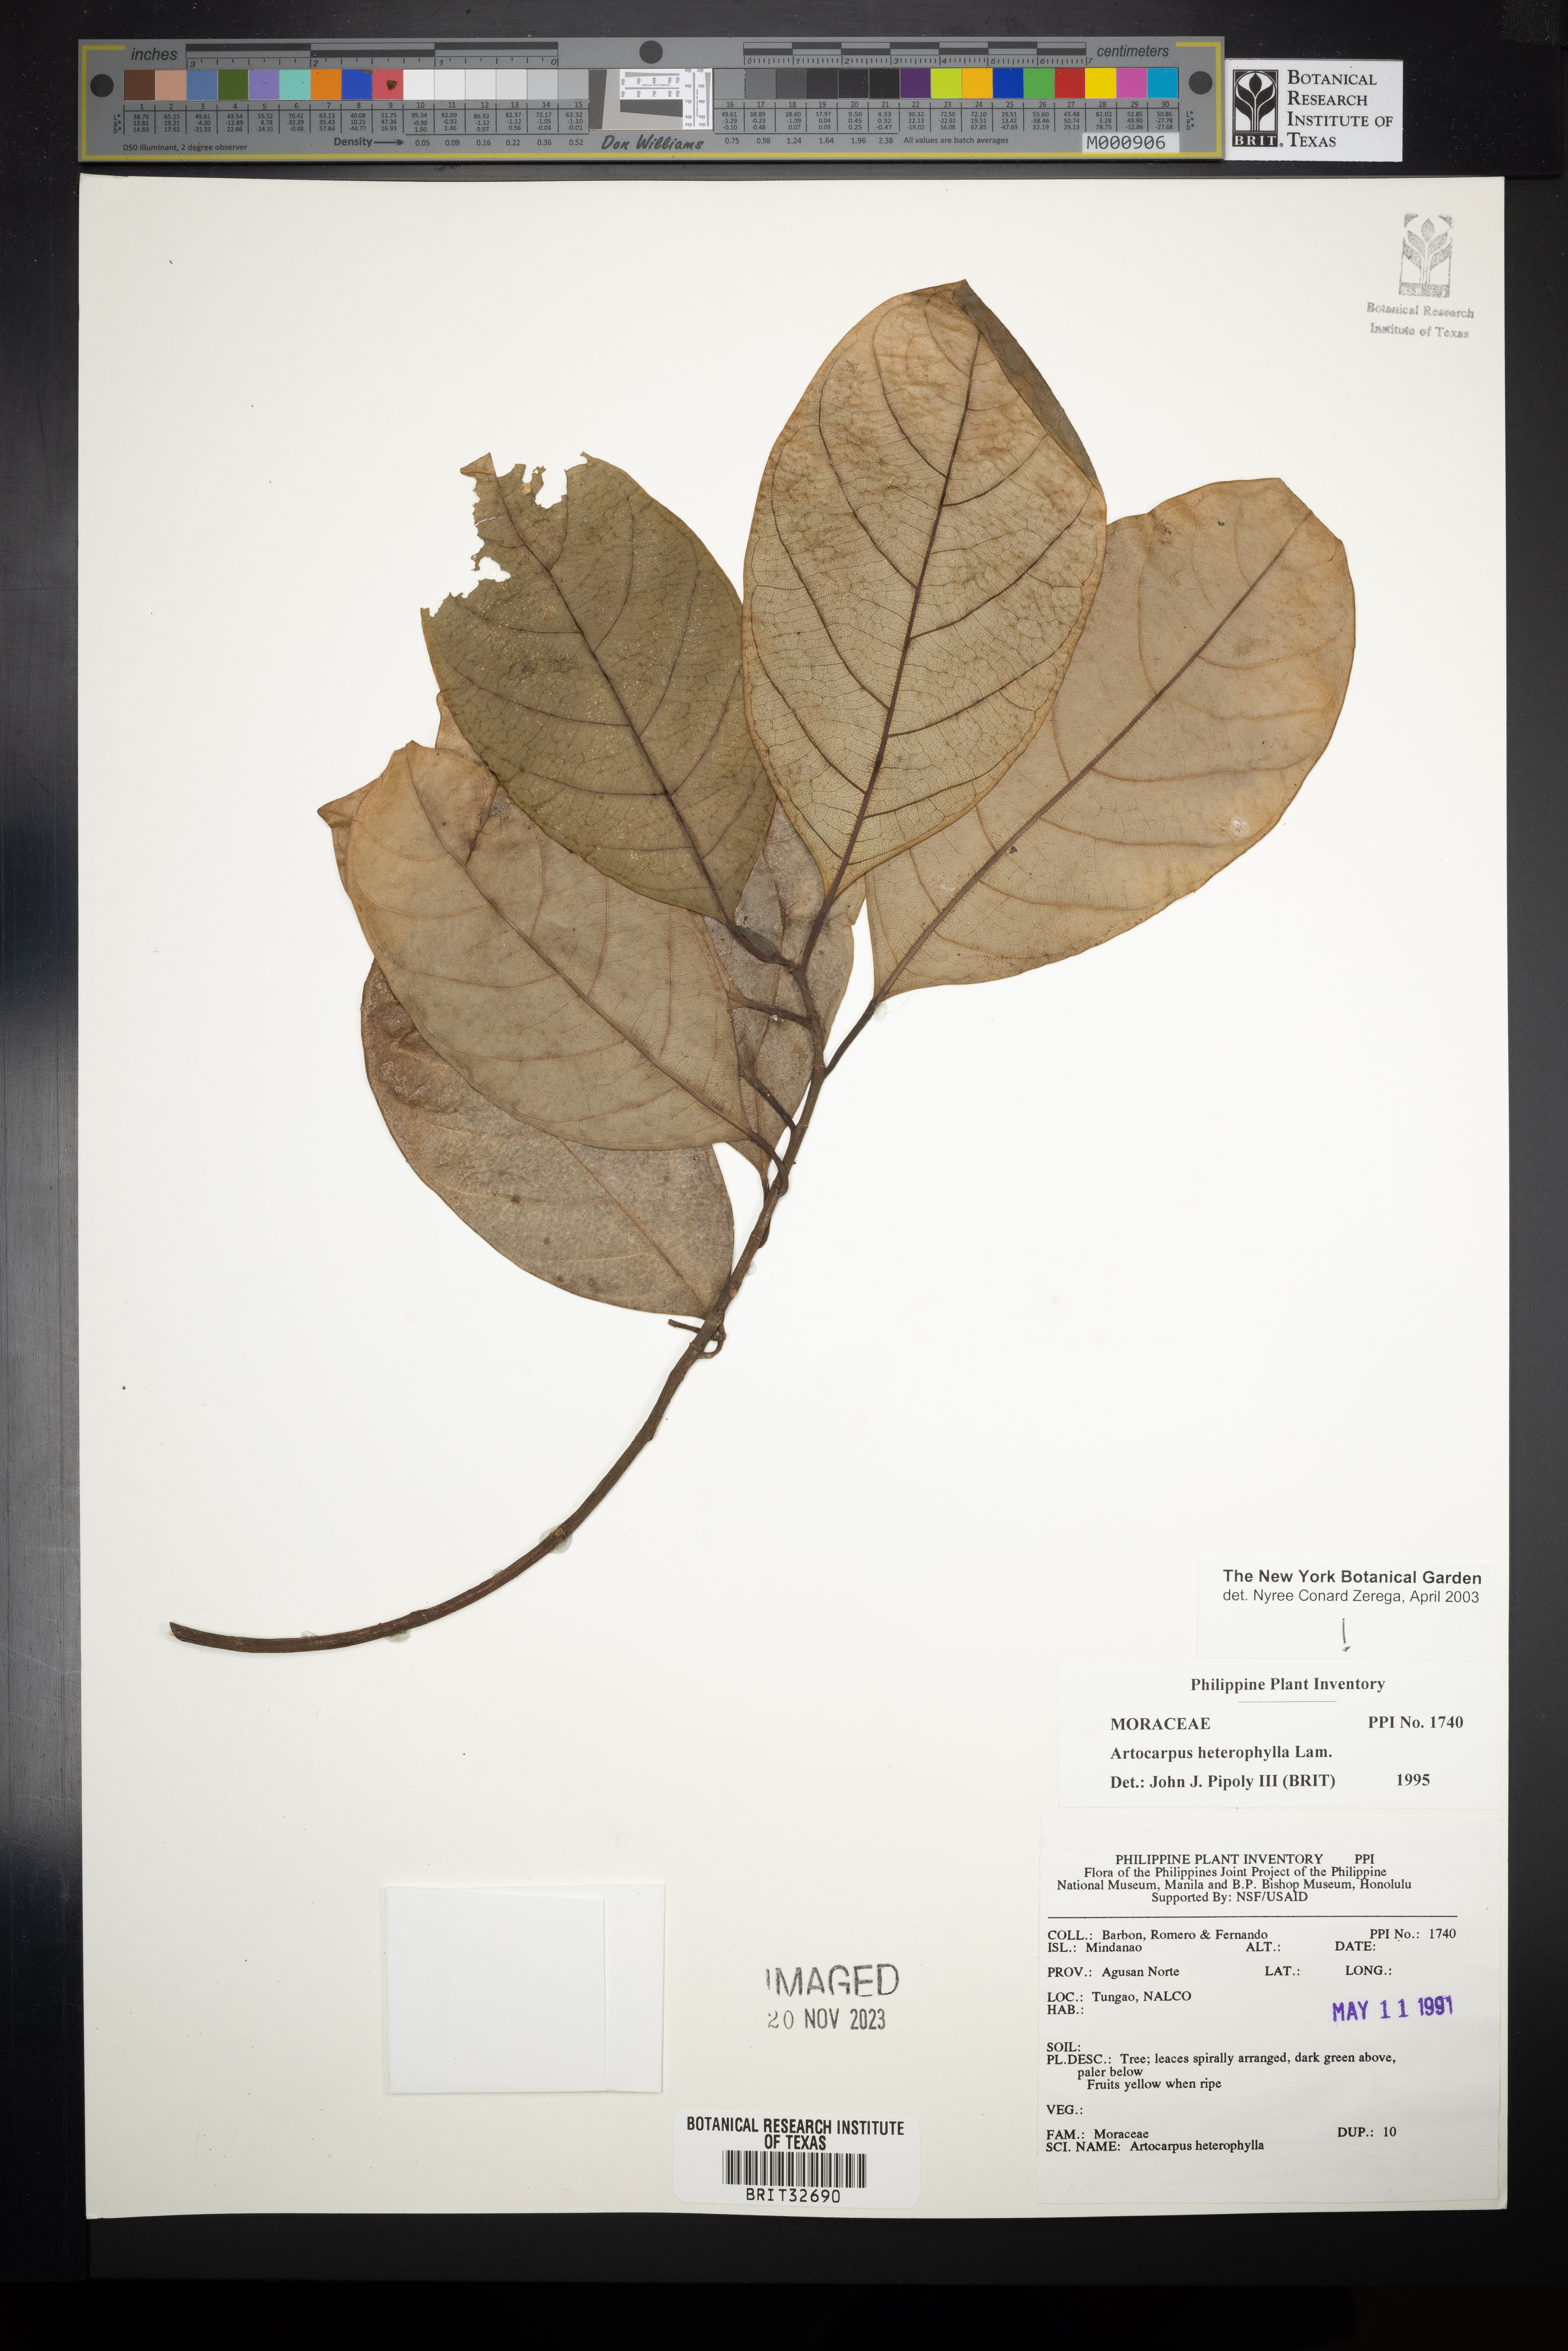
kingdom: Plantae
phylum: Tracheophyta
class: Magnoliopsida
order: Rosales
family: Moraceae
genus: Artocarpus
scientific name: Artocarpus heterophyllus
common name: Jackfruit
